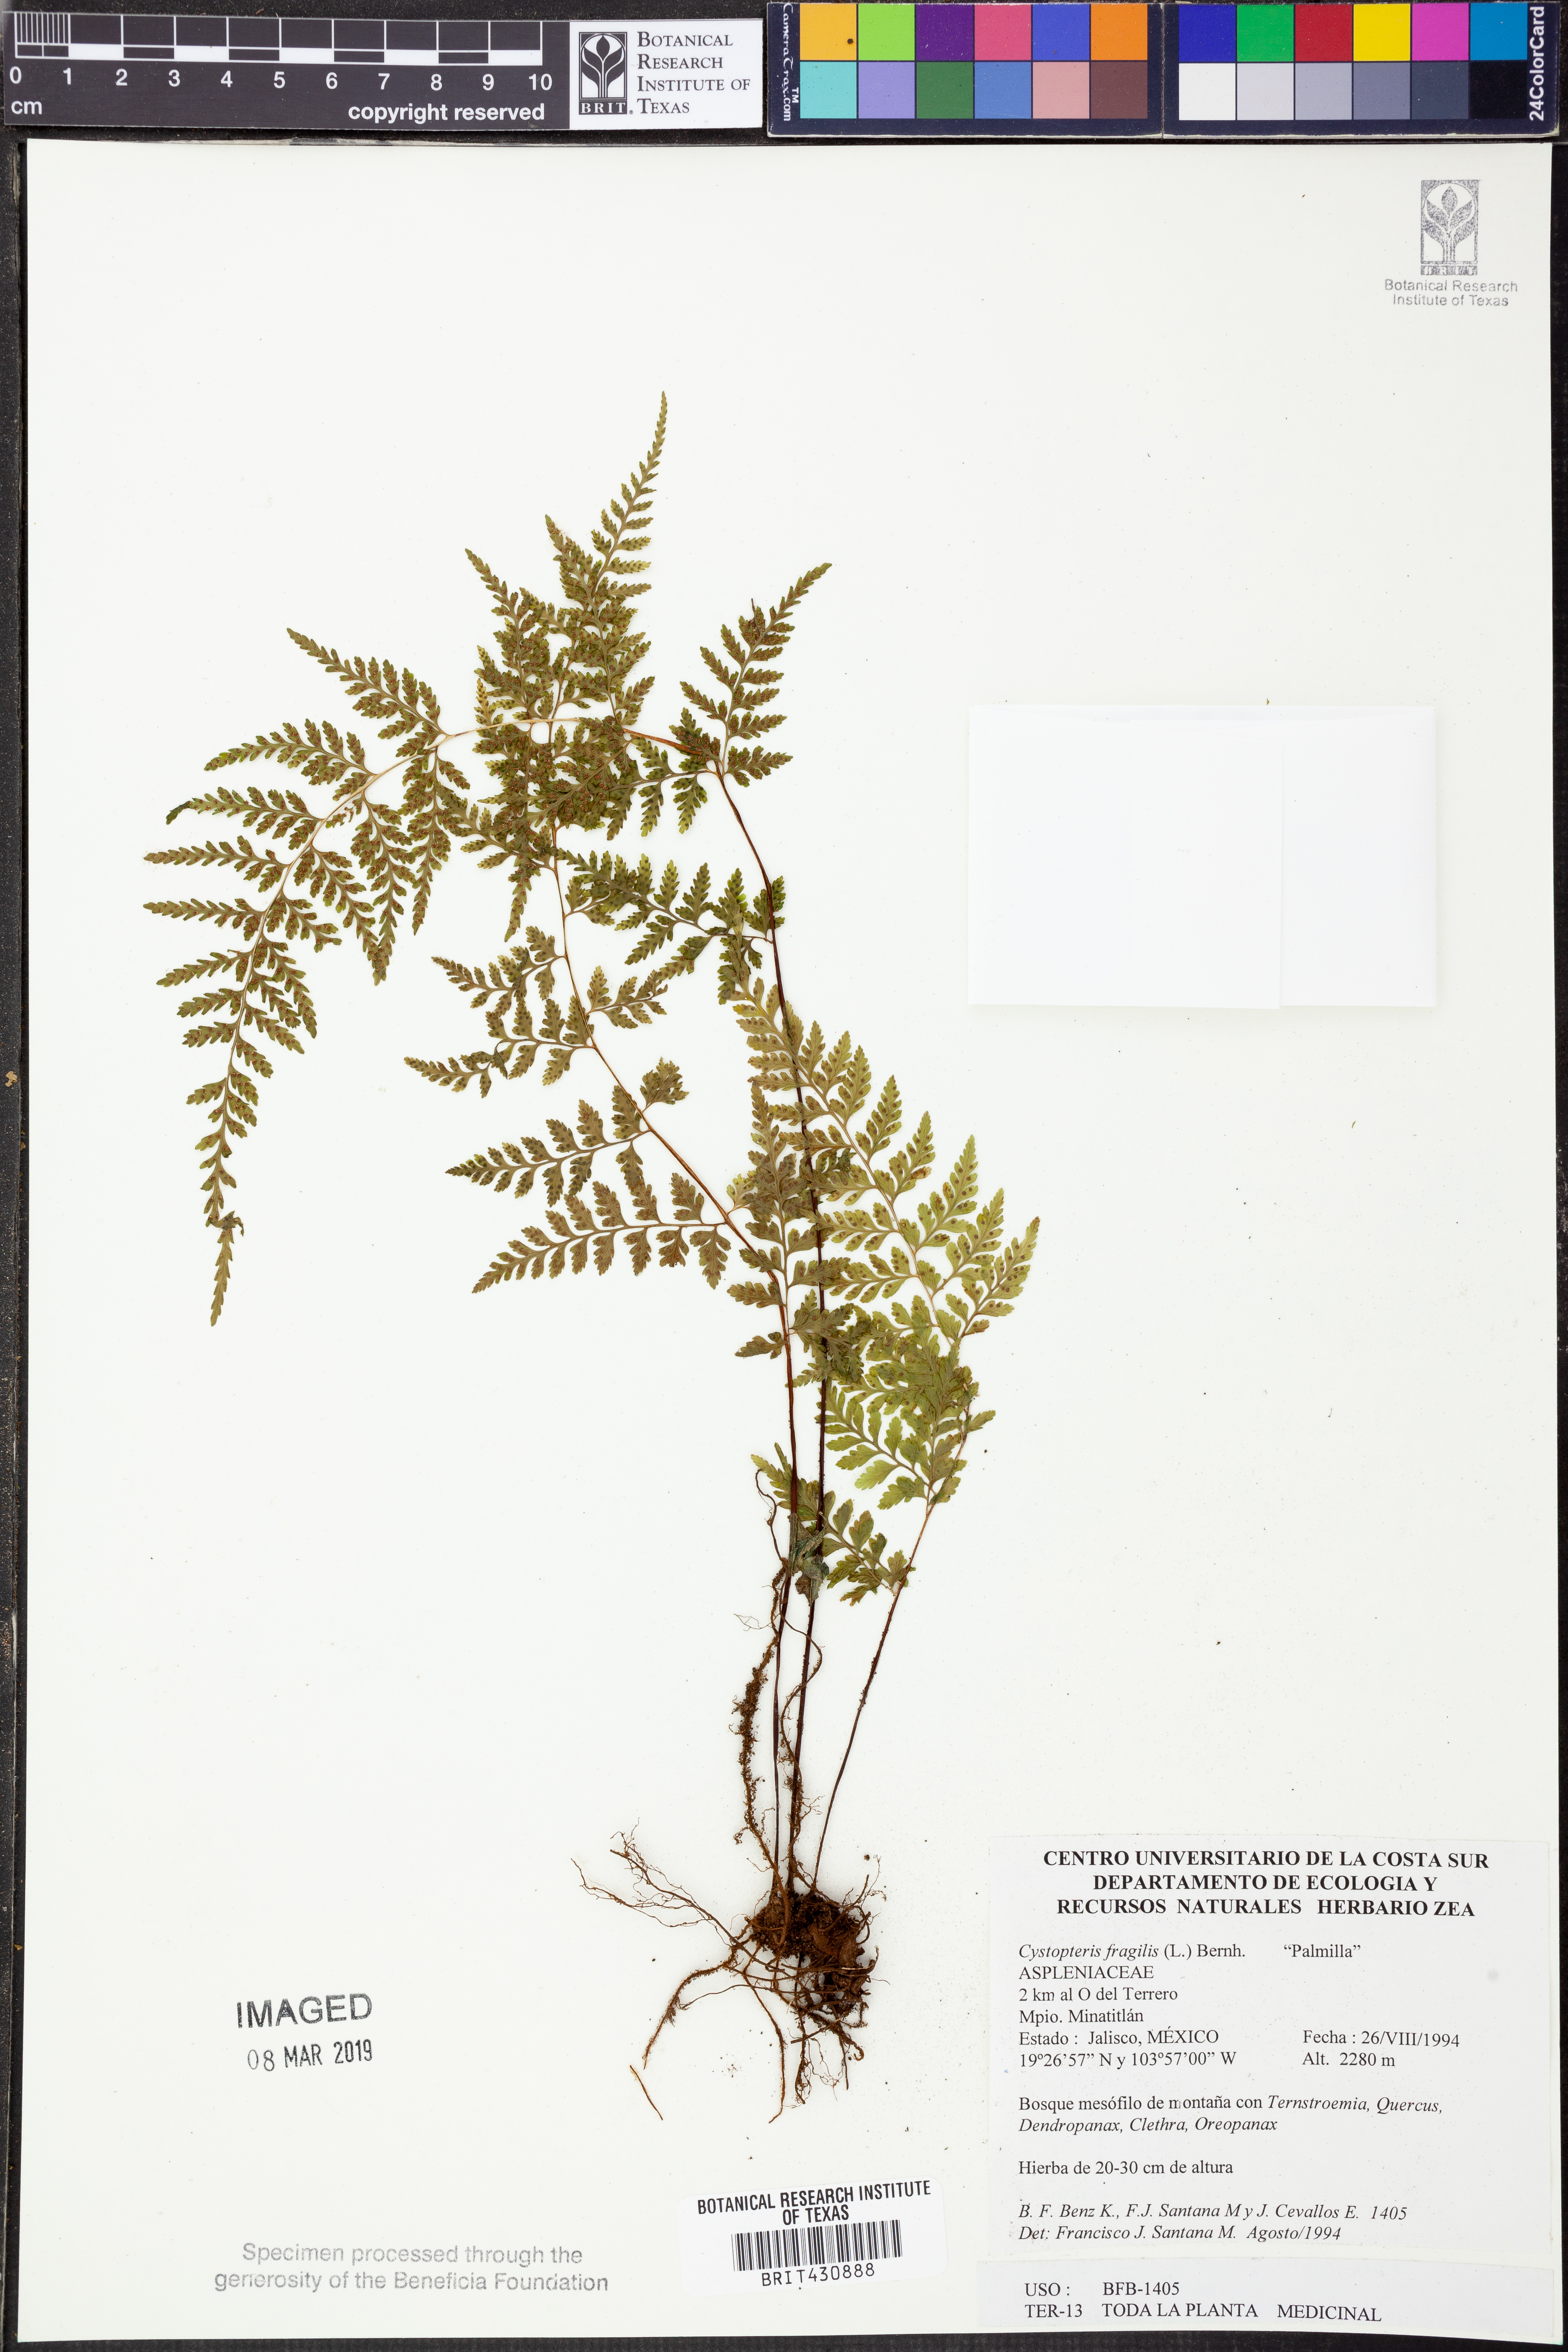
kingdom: Plantae
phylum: Tracheophyta
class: Polypodiopsida
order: Polypodiales
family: Cystopteridaceae
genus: Cystopteris
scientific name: Cystopteris fragilis
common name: Brittle bladder fern
